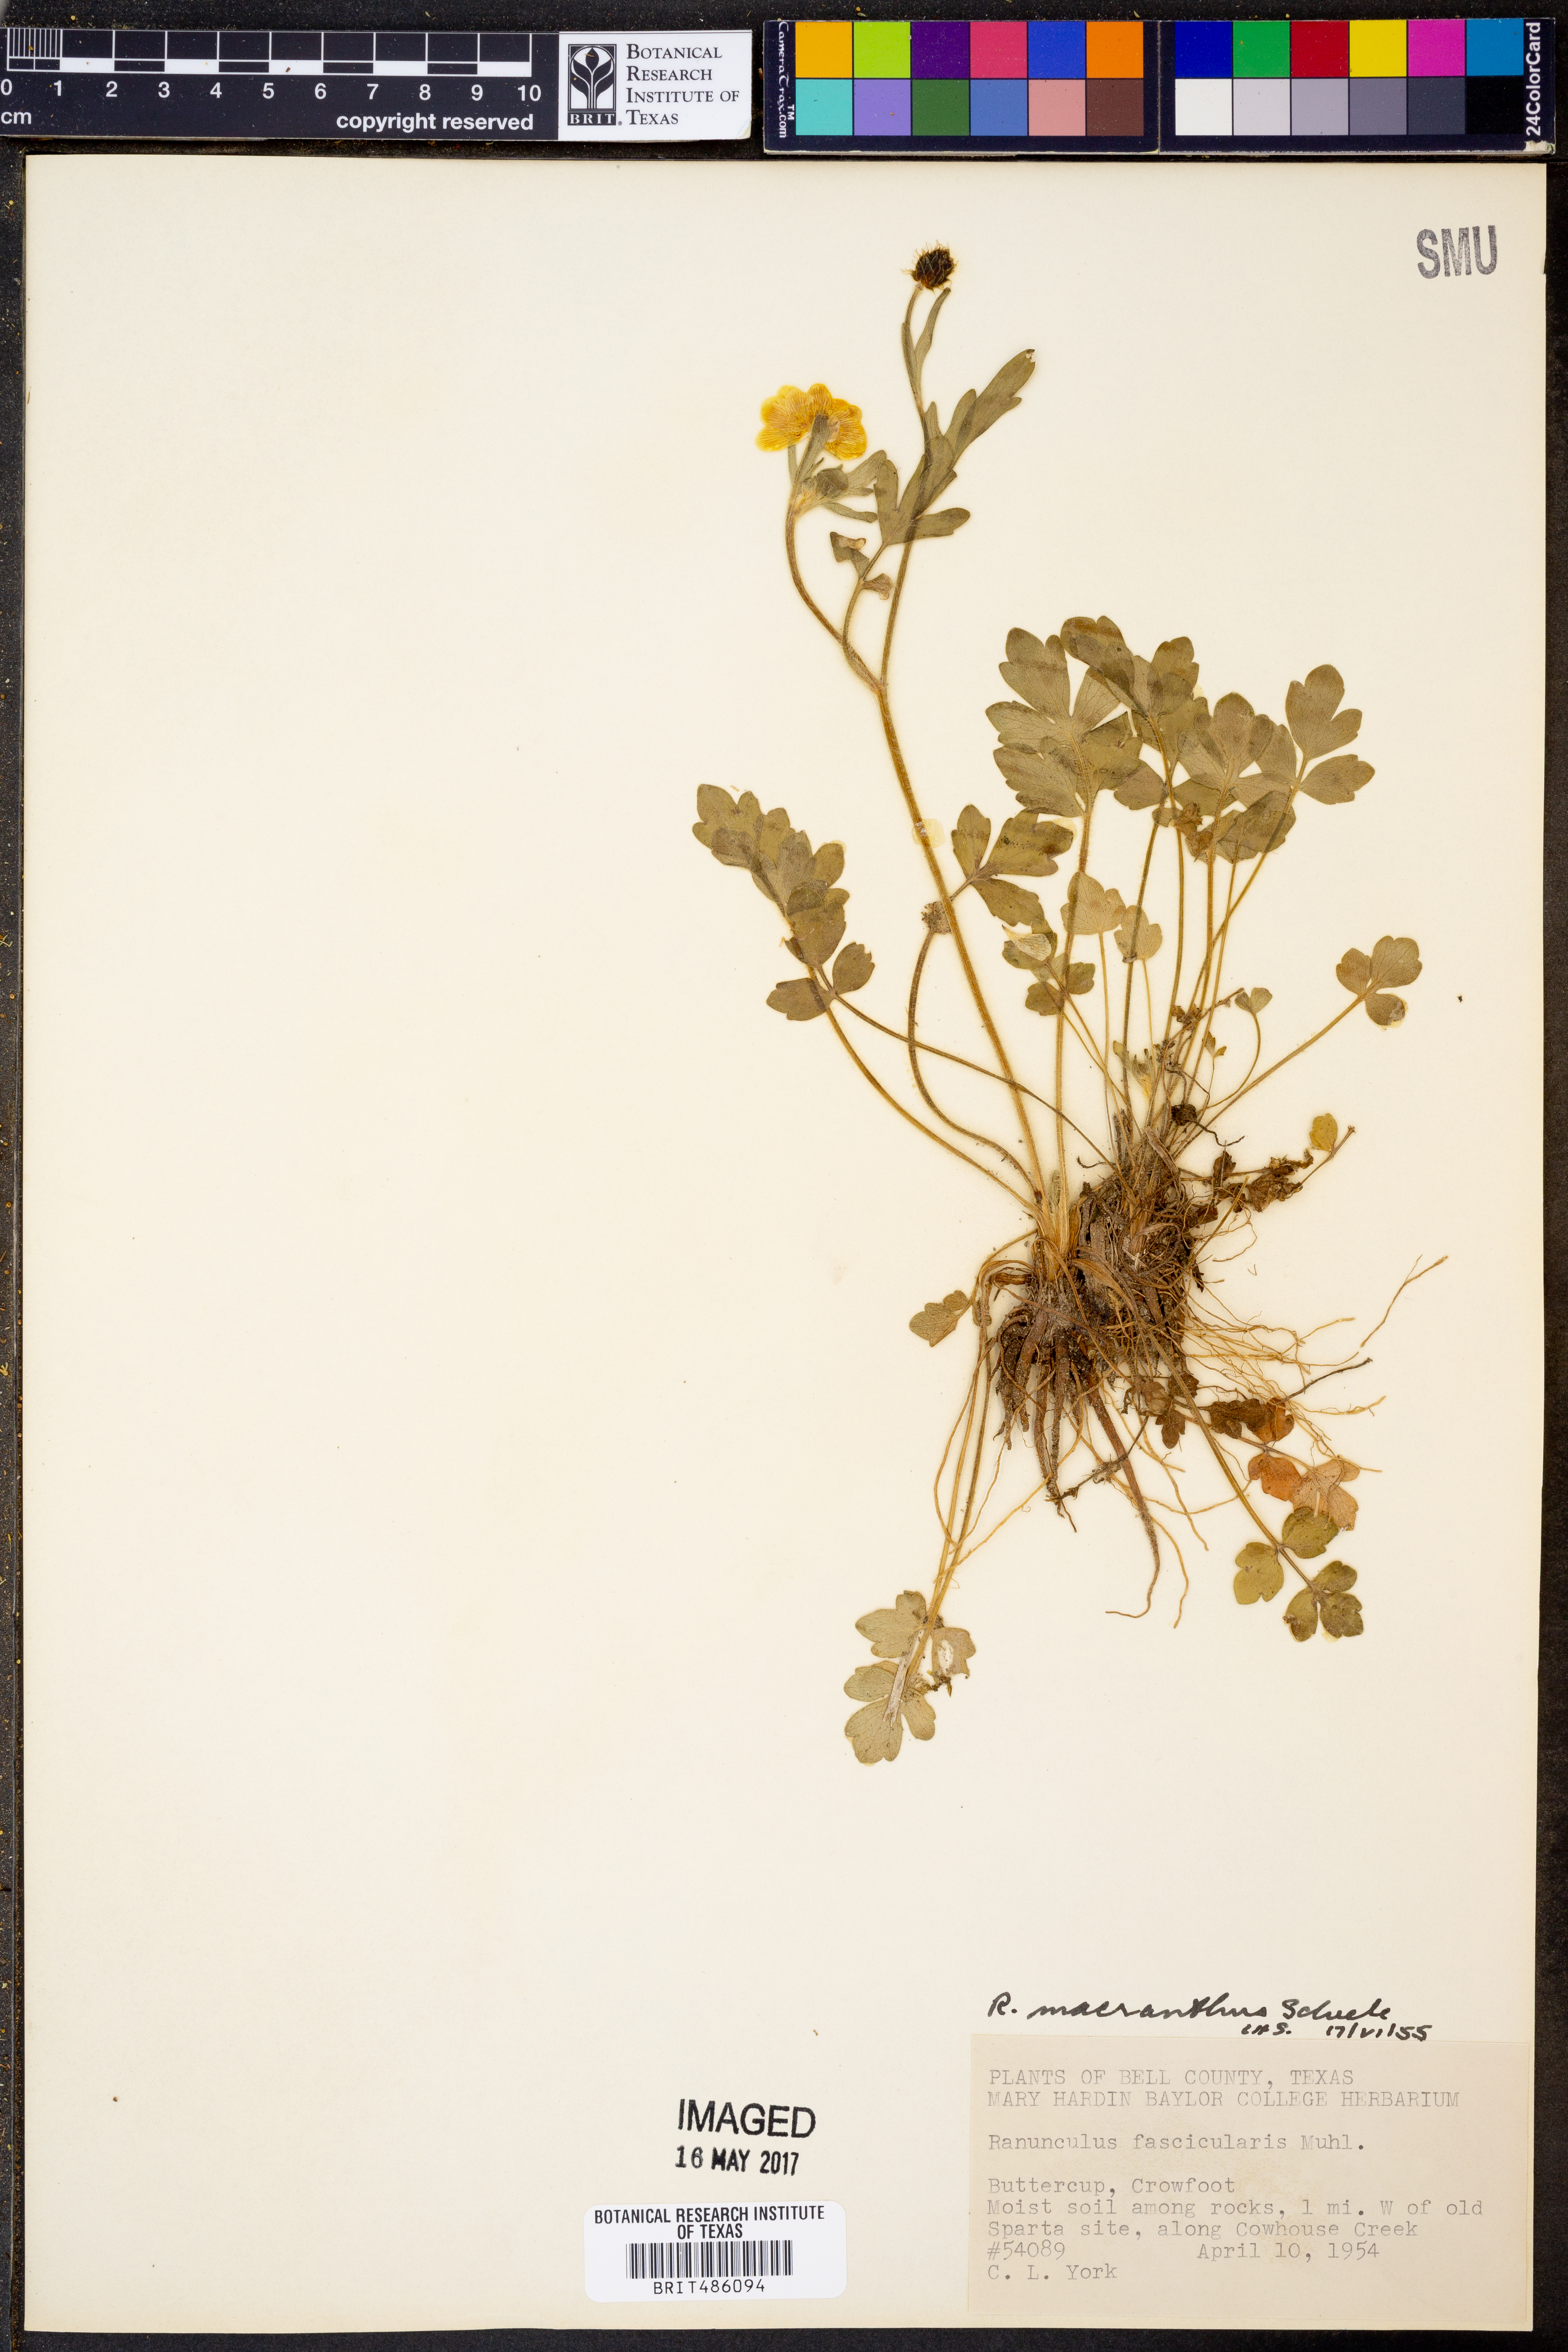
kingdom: Plantae
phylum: Tracheophyta
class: Magnoliopsida
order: Ranunculales
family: Ranunculaceae
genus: Ranunculus
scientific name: Ranunculus macranthus
